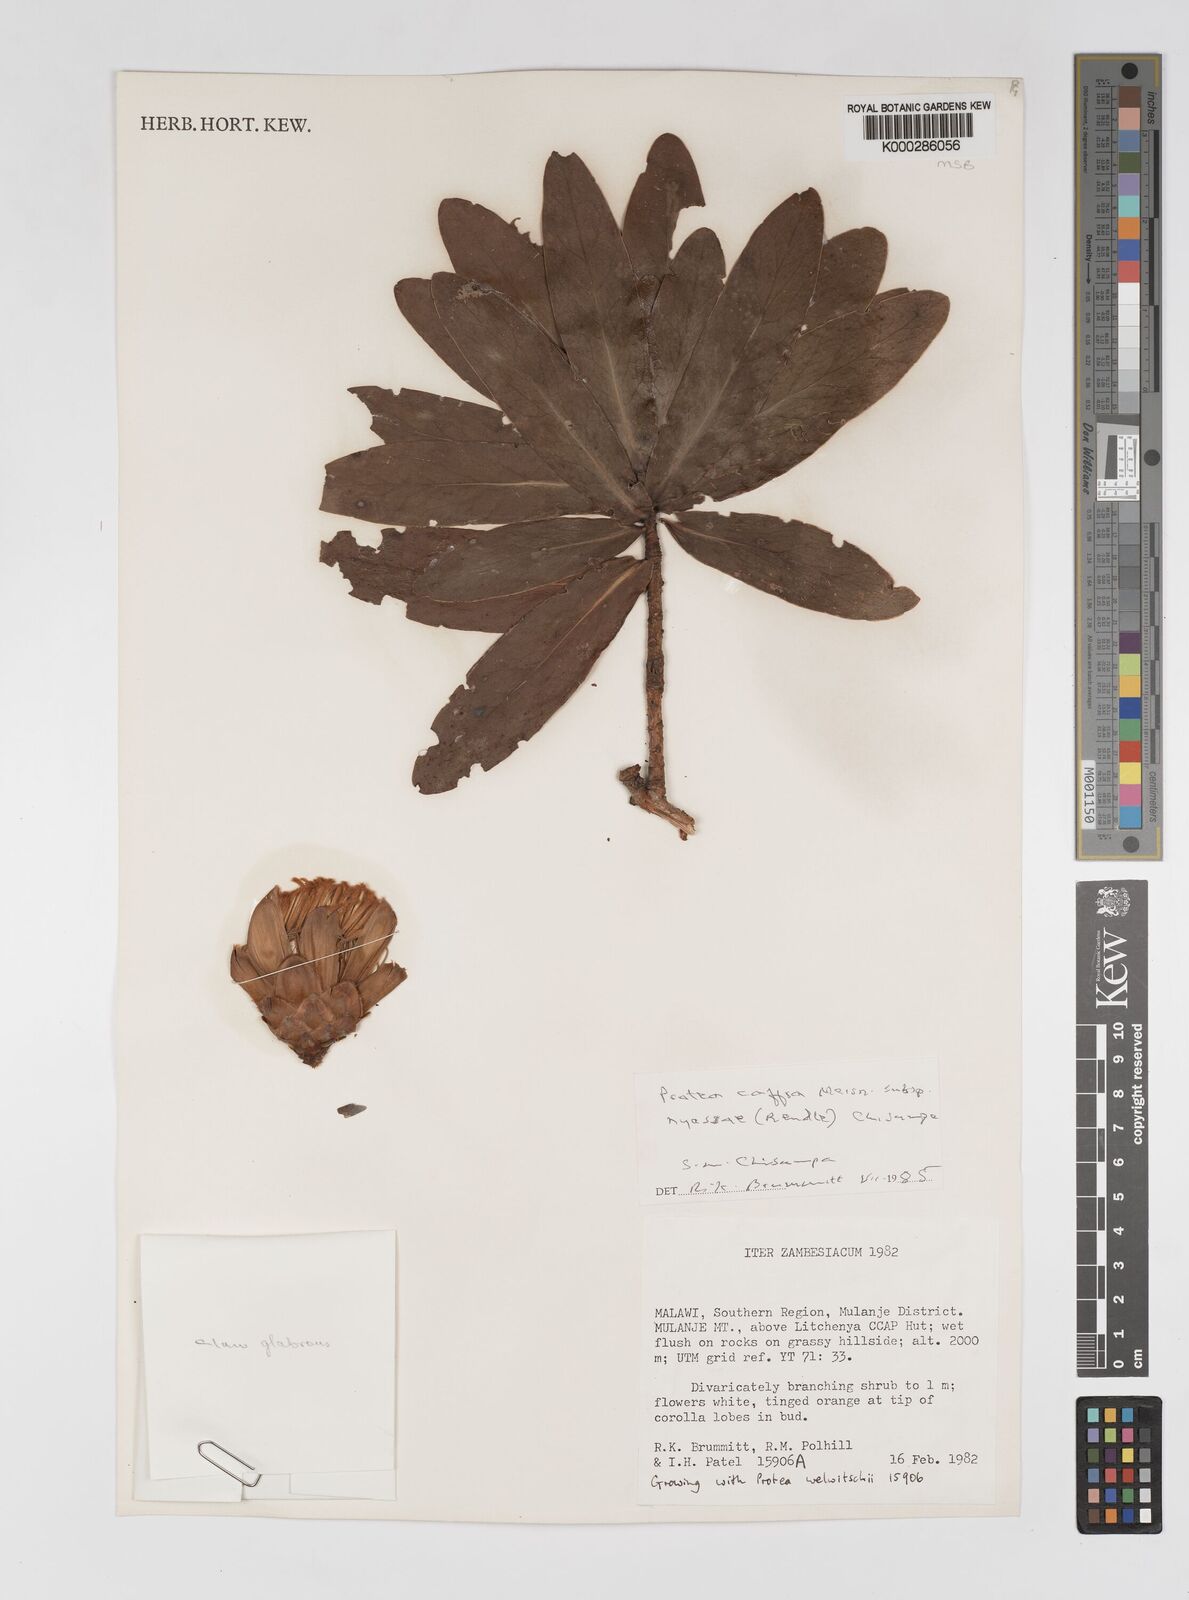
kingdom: Plantae
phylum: Tracheophyta
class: Magnoliopsida
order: Proteales
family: Proteaceae
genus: Protea
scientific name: Protea caffra
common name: Common sugarbush
